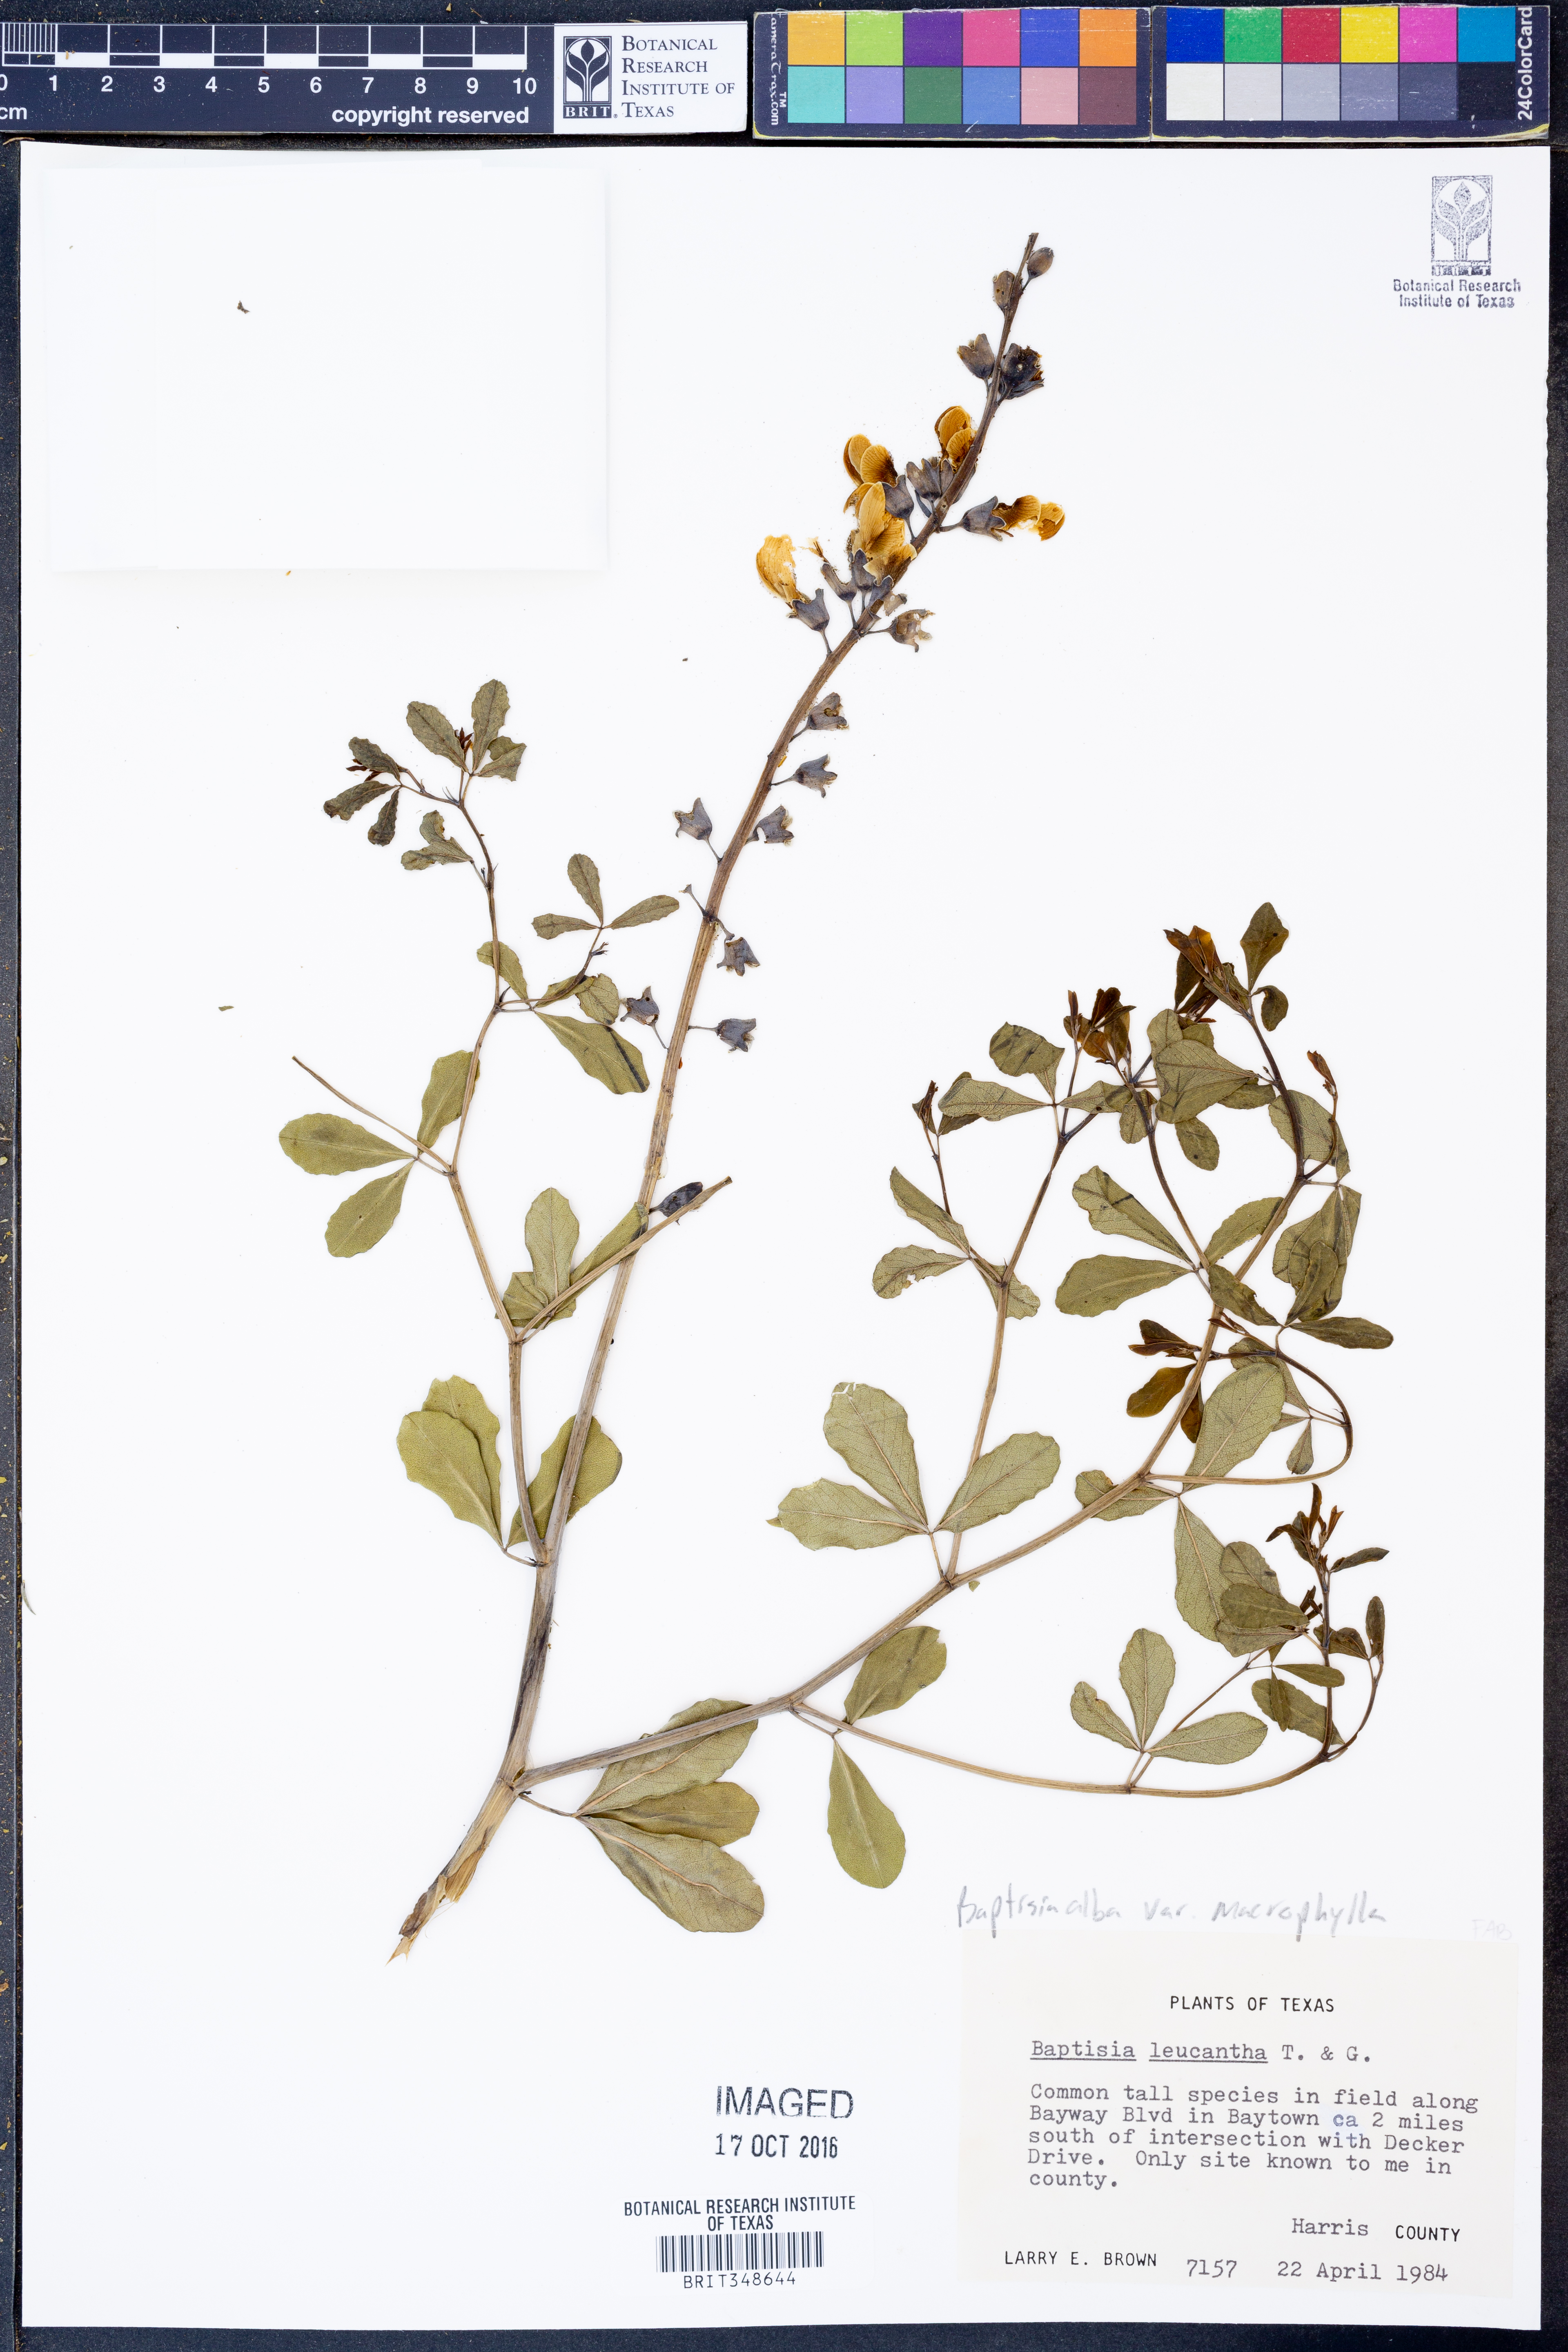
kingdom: Plantae
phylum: Tracheophyta
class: Magnoliopsida
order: Fabales
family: Fabaceae
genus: Baptisia
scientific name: Baptisia alba
